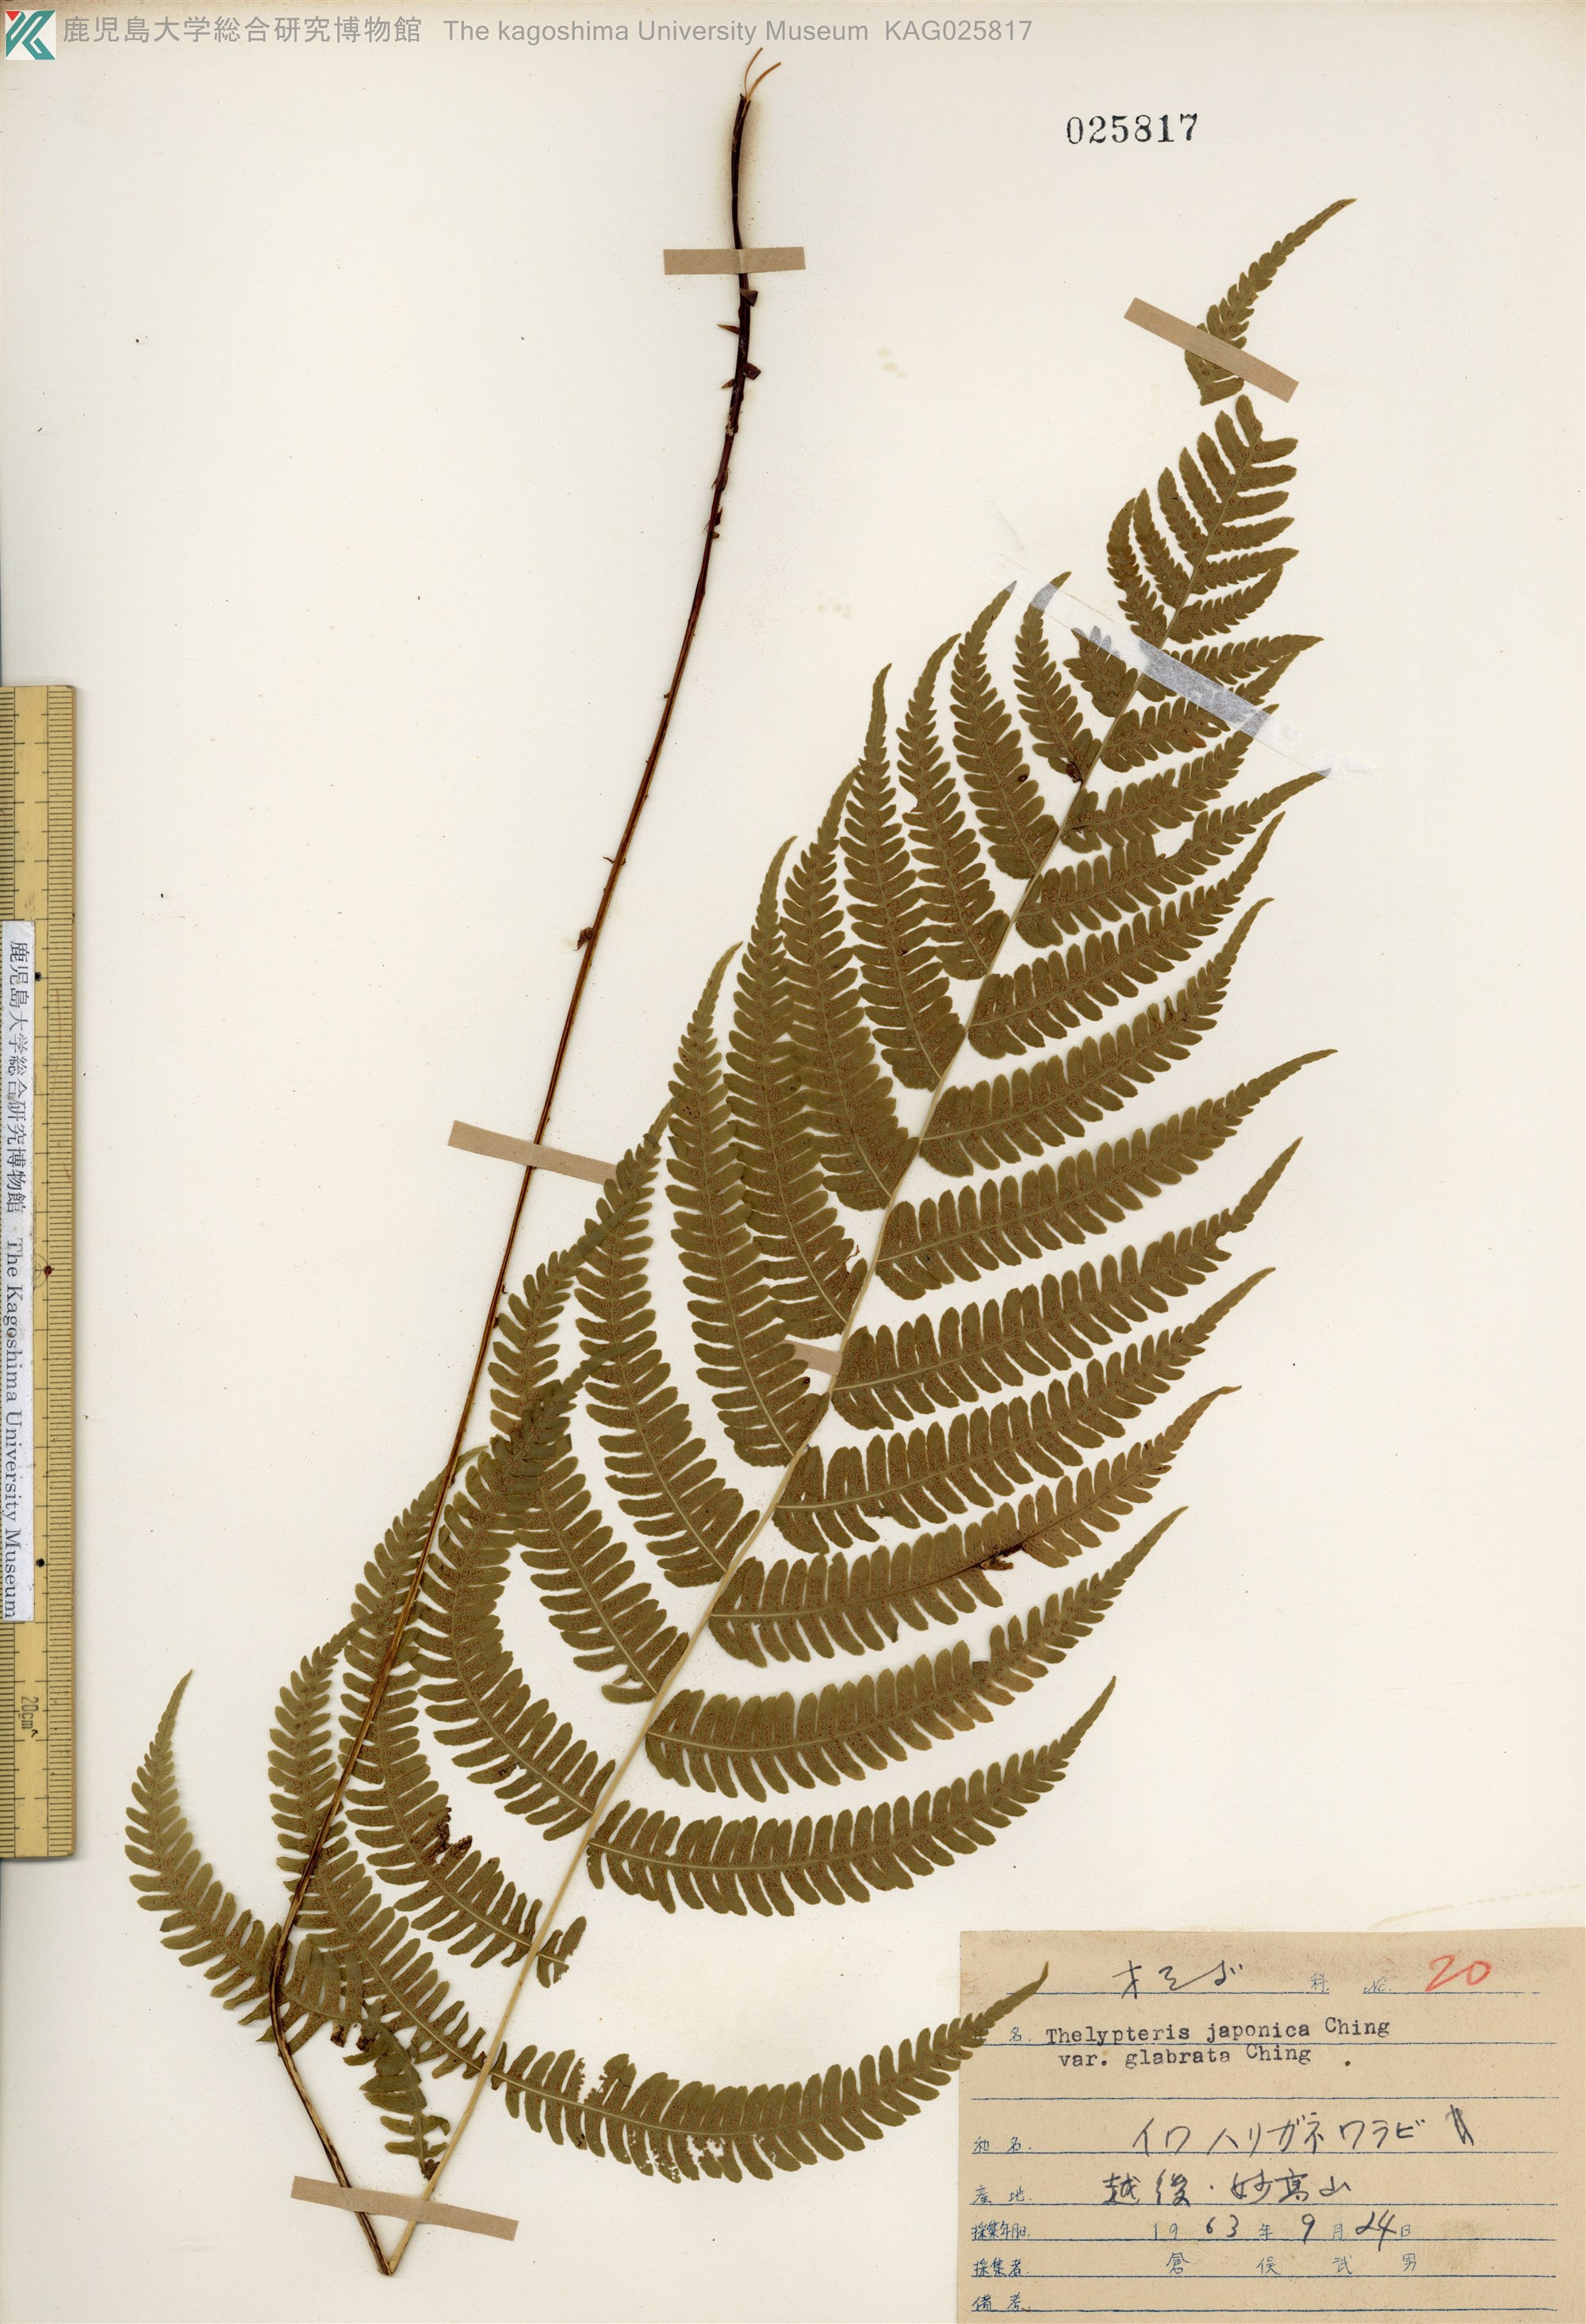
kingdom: Plantae
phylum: Tracheophyta
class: Polypodiopsida
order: Polypodiales
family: Thelypteridaceae
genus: Coryphopteris
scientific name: Coryphopteris japonica
